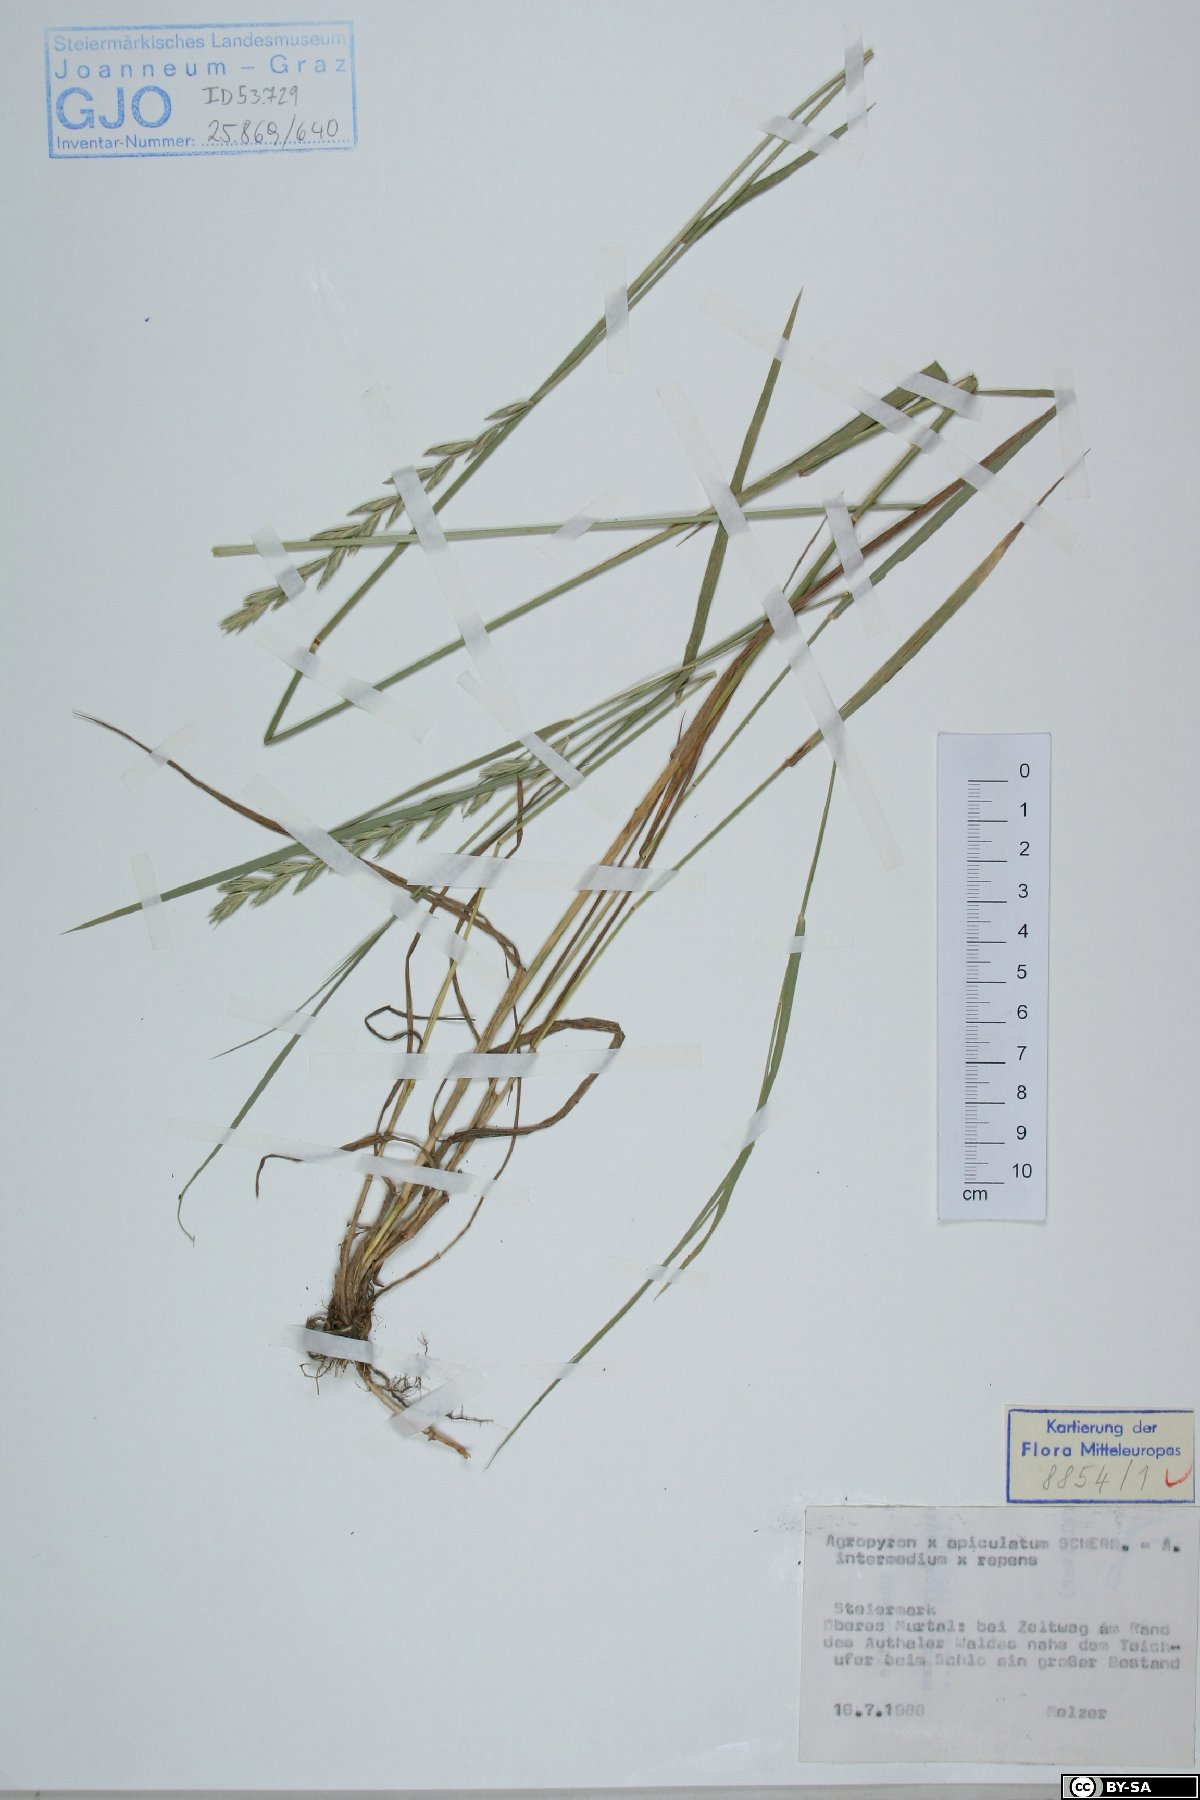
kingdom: Plantae
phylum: Tracheophyta
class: Liliopsida
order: Poales
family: Poaceae
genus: Elymus
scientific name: Elymus apiculatus
